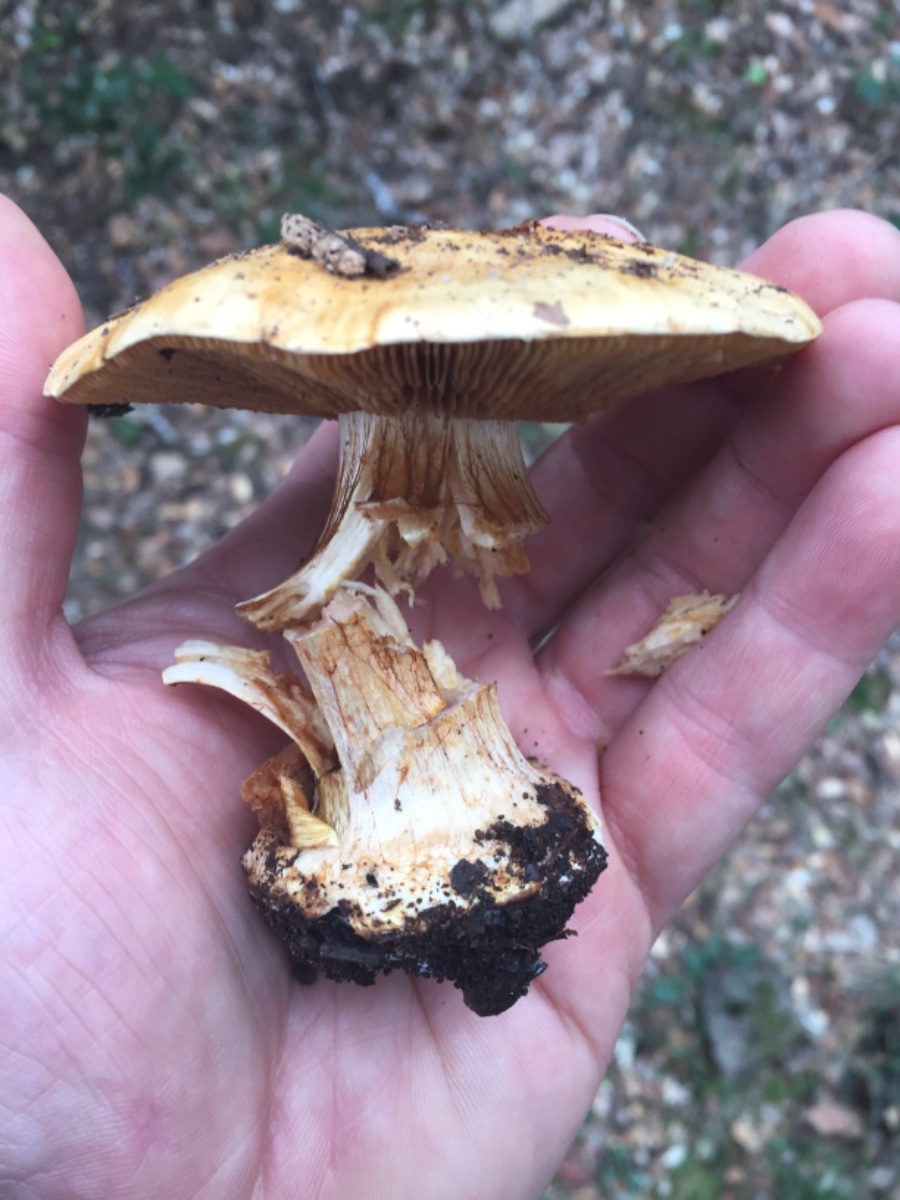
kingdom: Fungi
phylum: Basidiomycota
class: Agaricomycetes
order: Agaricales
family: Cortinariaceae
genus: Calonarius
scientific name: Calonarius humolens
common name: radise-slørhat
